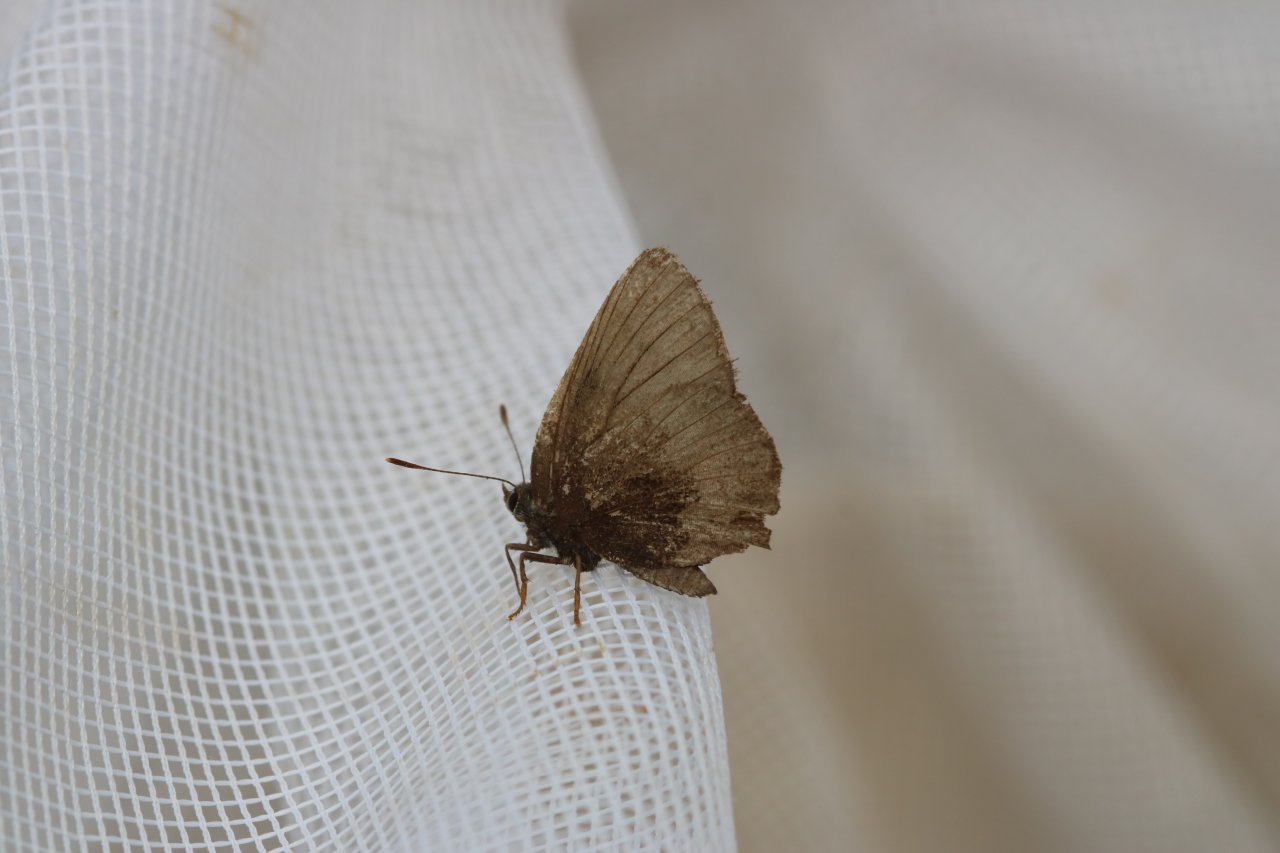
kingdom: Animalia
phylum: Arthropoda
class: Insecta
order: Lepidoptera
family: Lycaenidae
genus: Incisalia
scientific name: Incisalia irioides
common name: Brown Elfin
